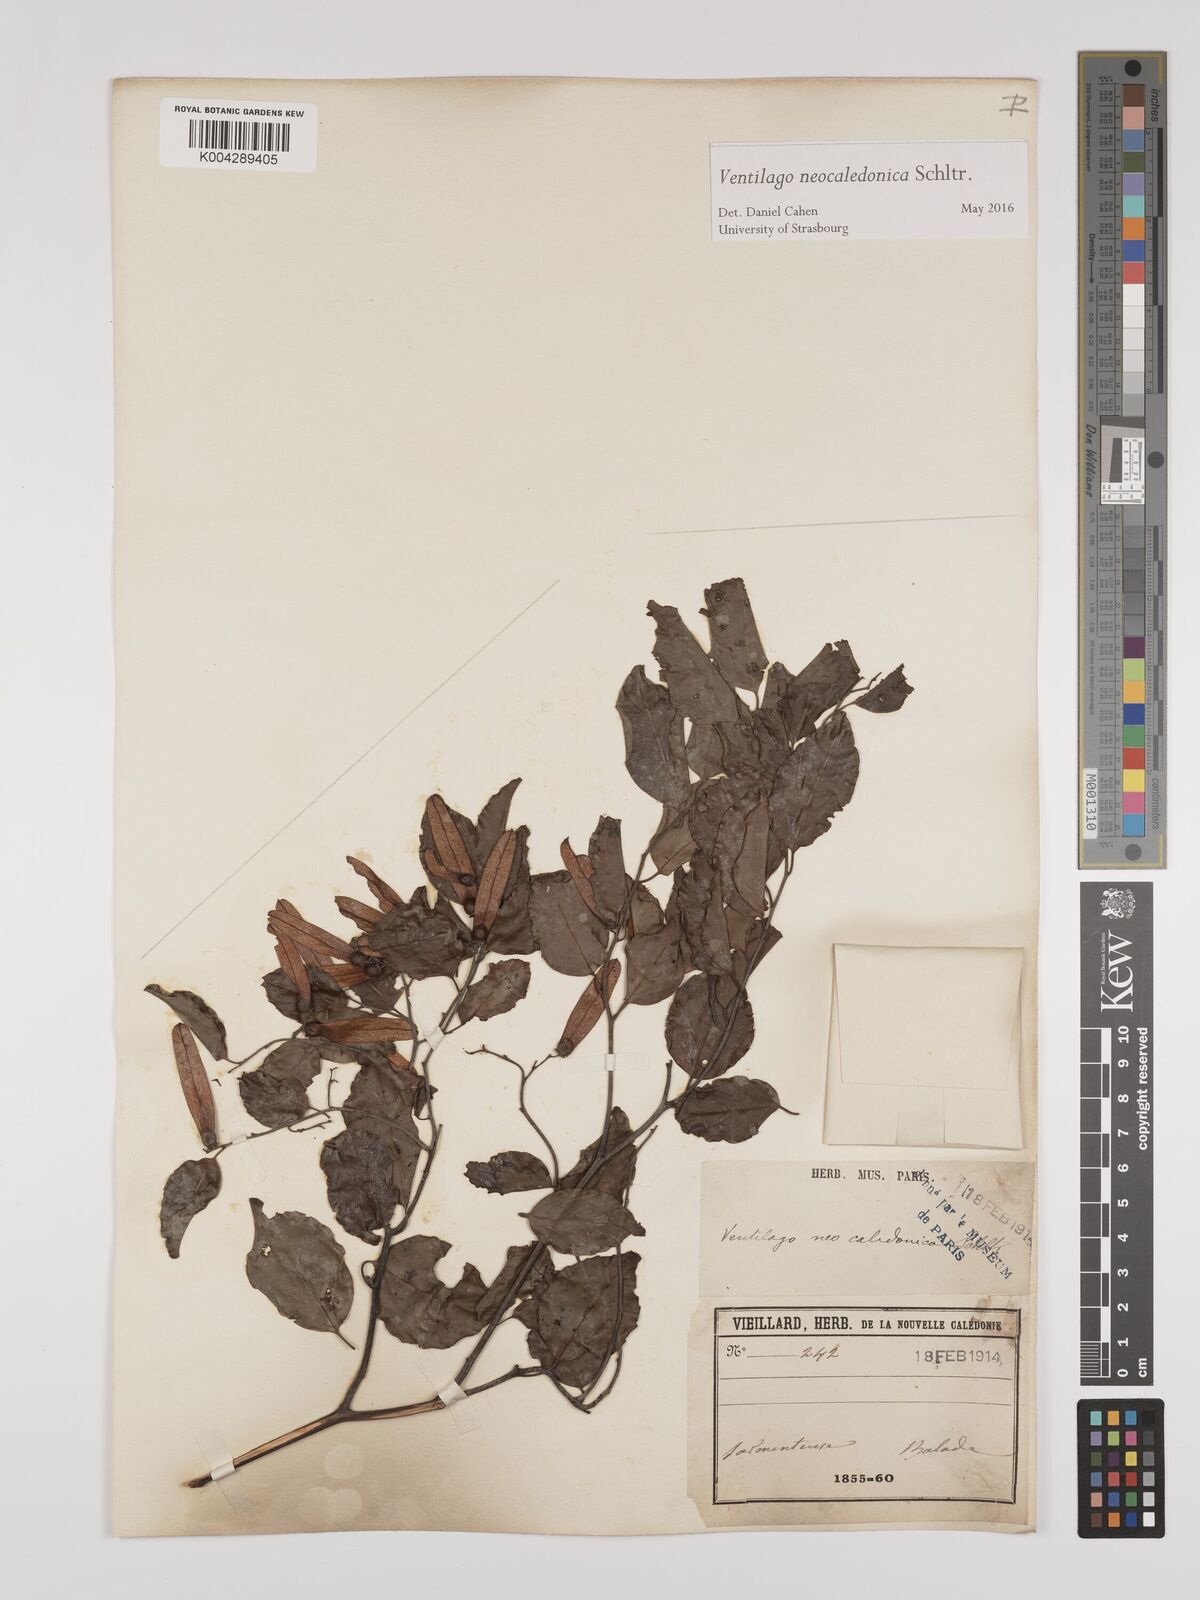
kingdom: Plantae
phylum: Tracheophyta
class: Magnoliopsida
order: Rosales
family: Rhamnaceae
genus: Ventilago
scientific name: Ventilago neocaledonica
